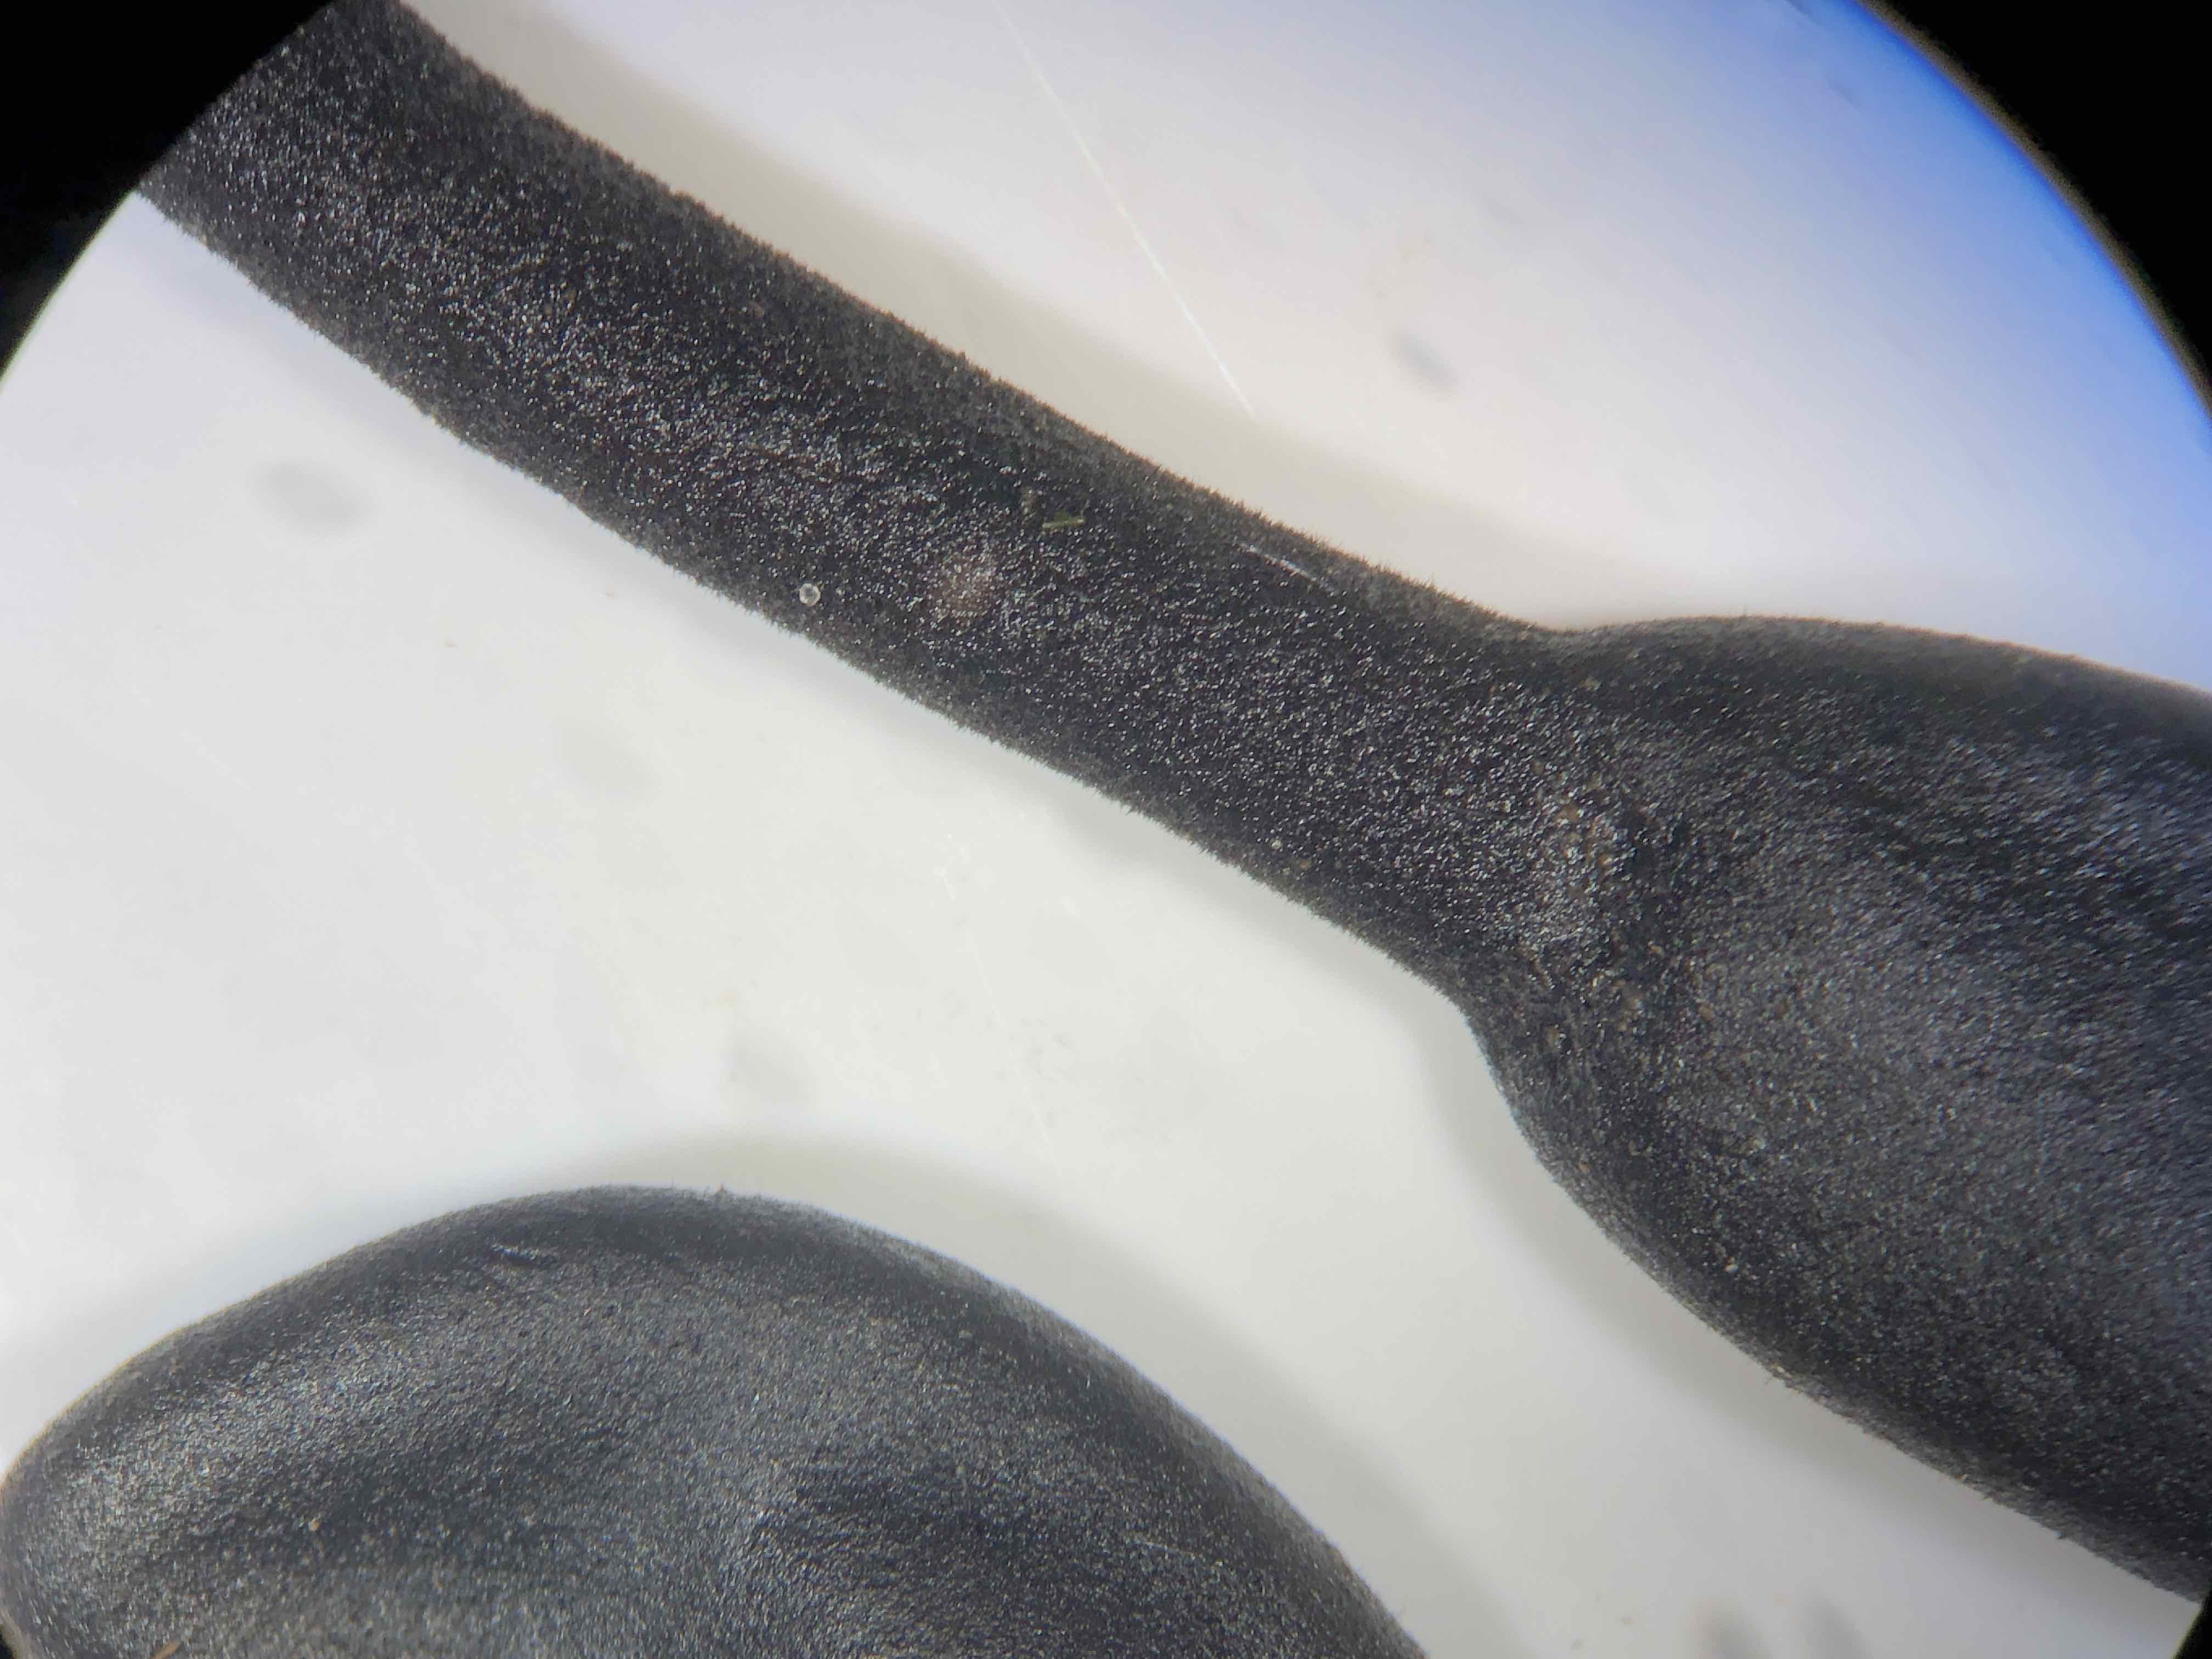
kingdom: Fungi
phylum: Ascomycota
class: Geoglossomycetes
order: Geoglossales
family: Geoglossaceae
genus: Trichoglossum
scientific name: Trichoglossum hirsutum
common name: håret jordtunge
